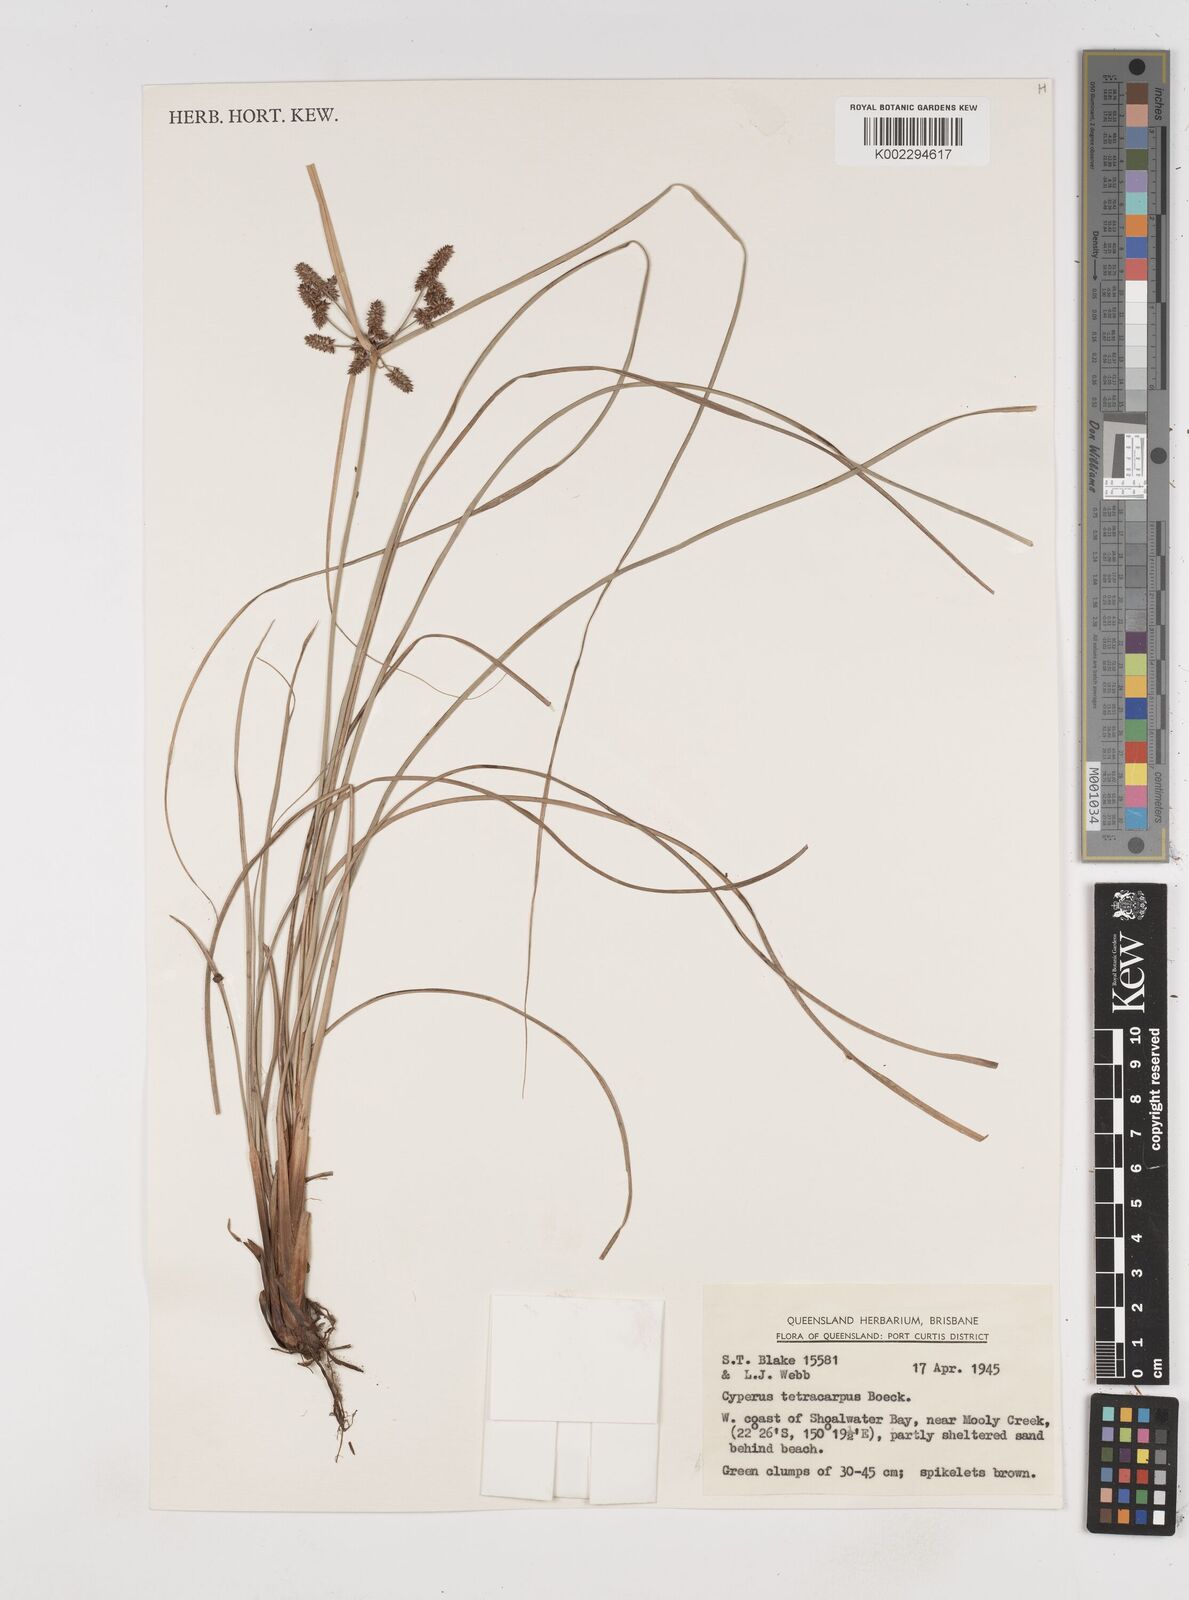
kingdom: Plantae
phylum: Tracheophyta
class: Liliopsida
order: Poales
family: Cyperaceae
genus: Cyperus
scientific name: Cyperus tetracarpus
